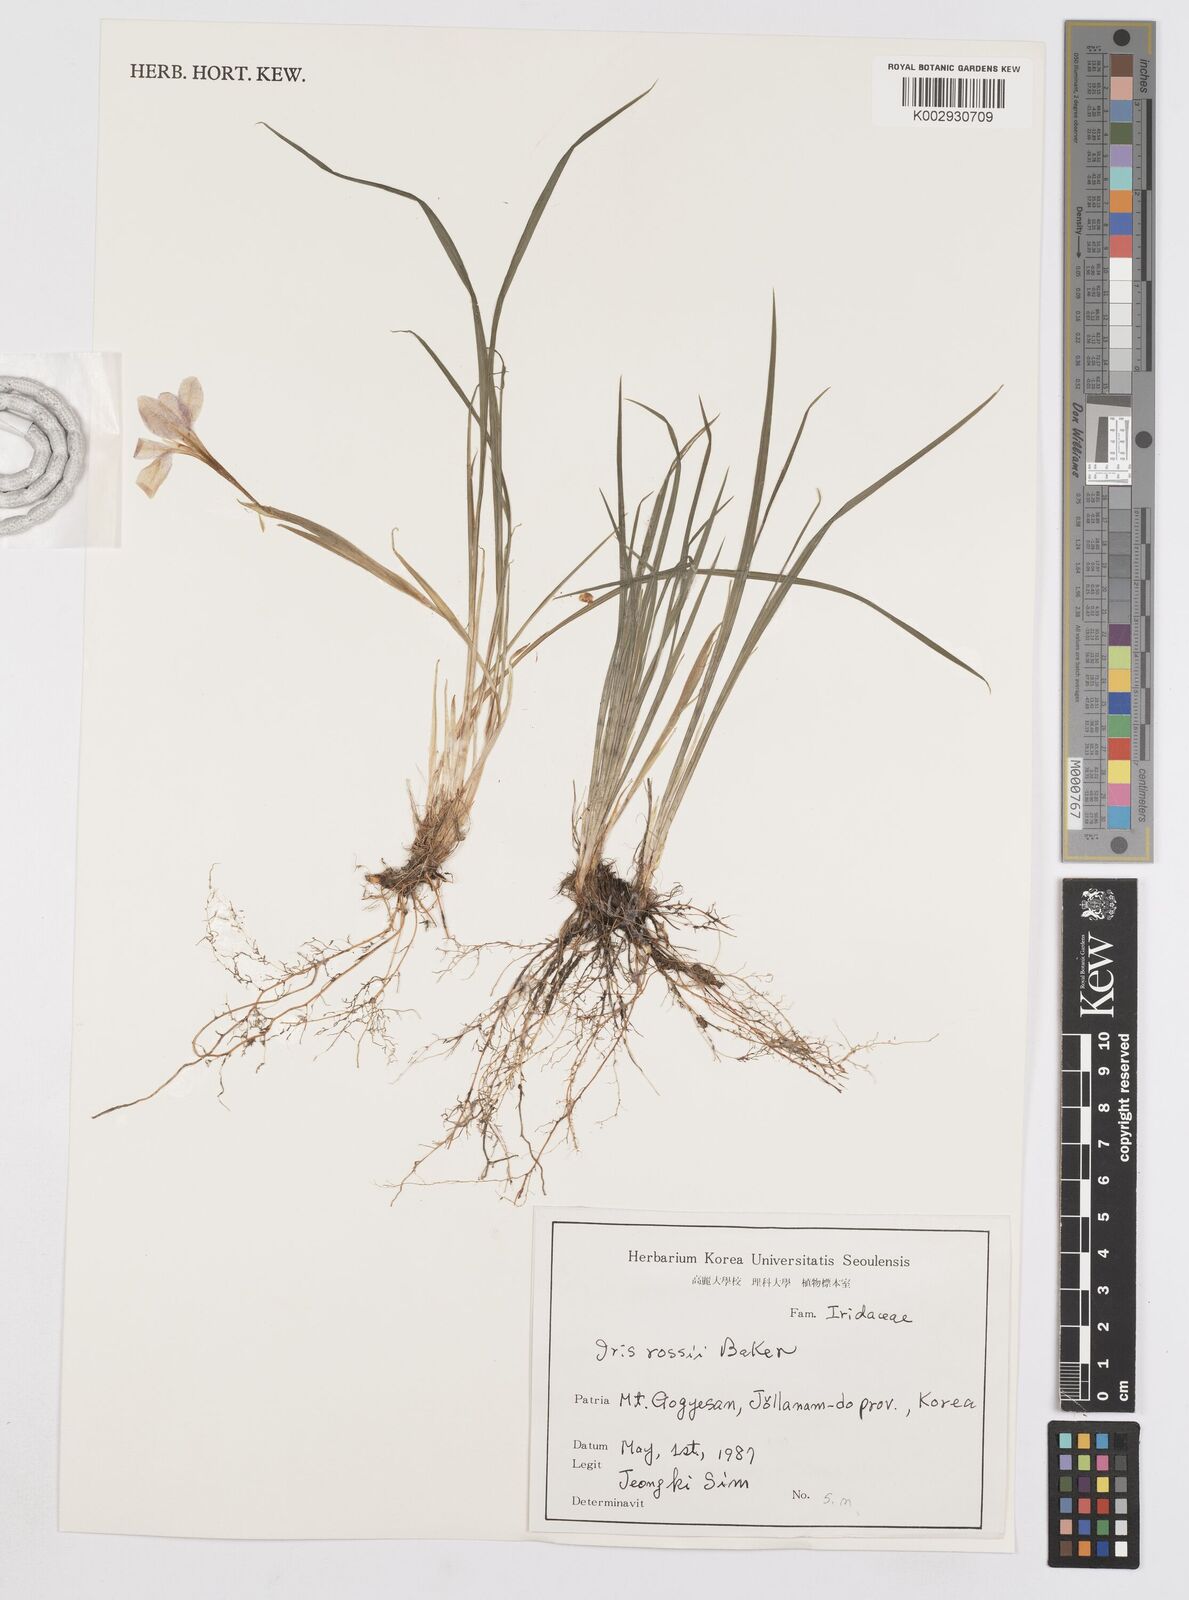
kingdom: Plantae
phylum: Tracheophyta
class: Liliopsida
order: Asparagales
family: Iridaceae
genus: Iris
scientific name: Iris rossii
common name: Long-tail iris
